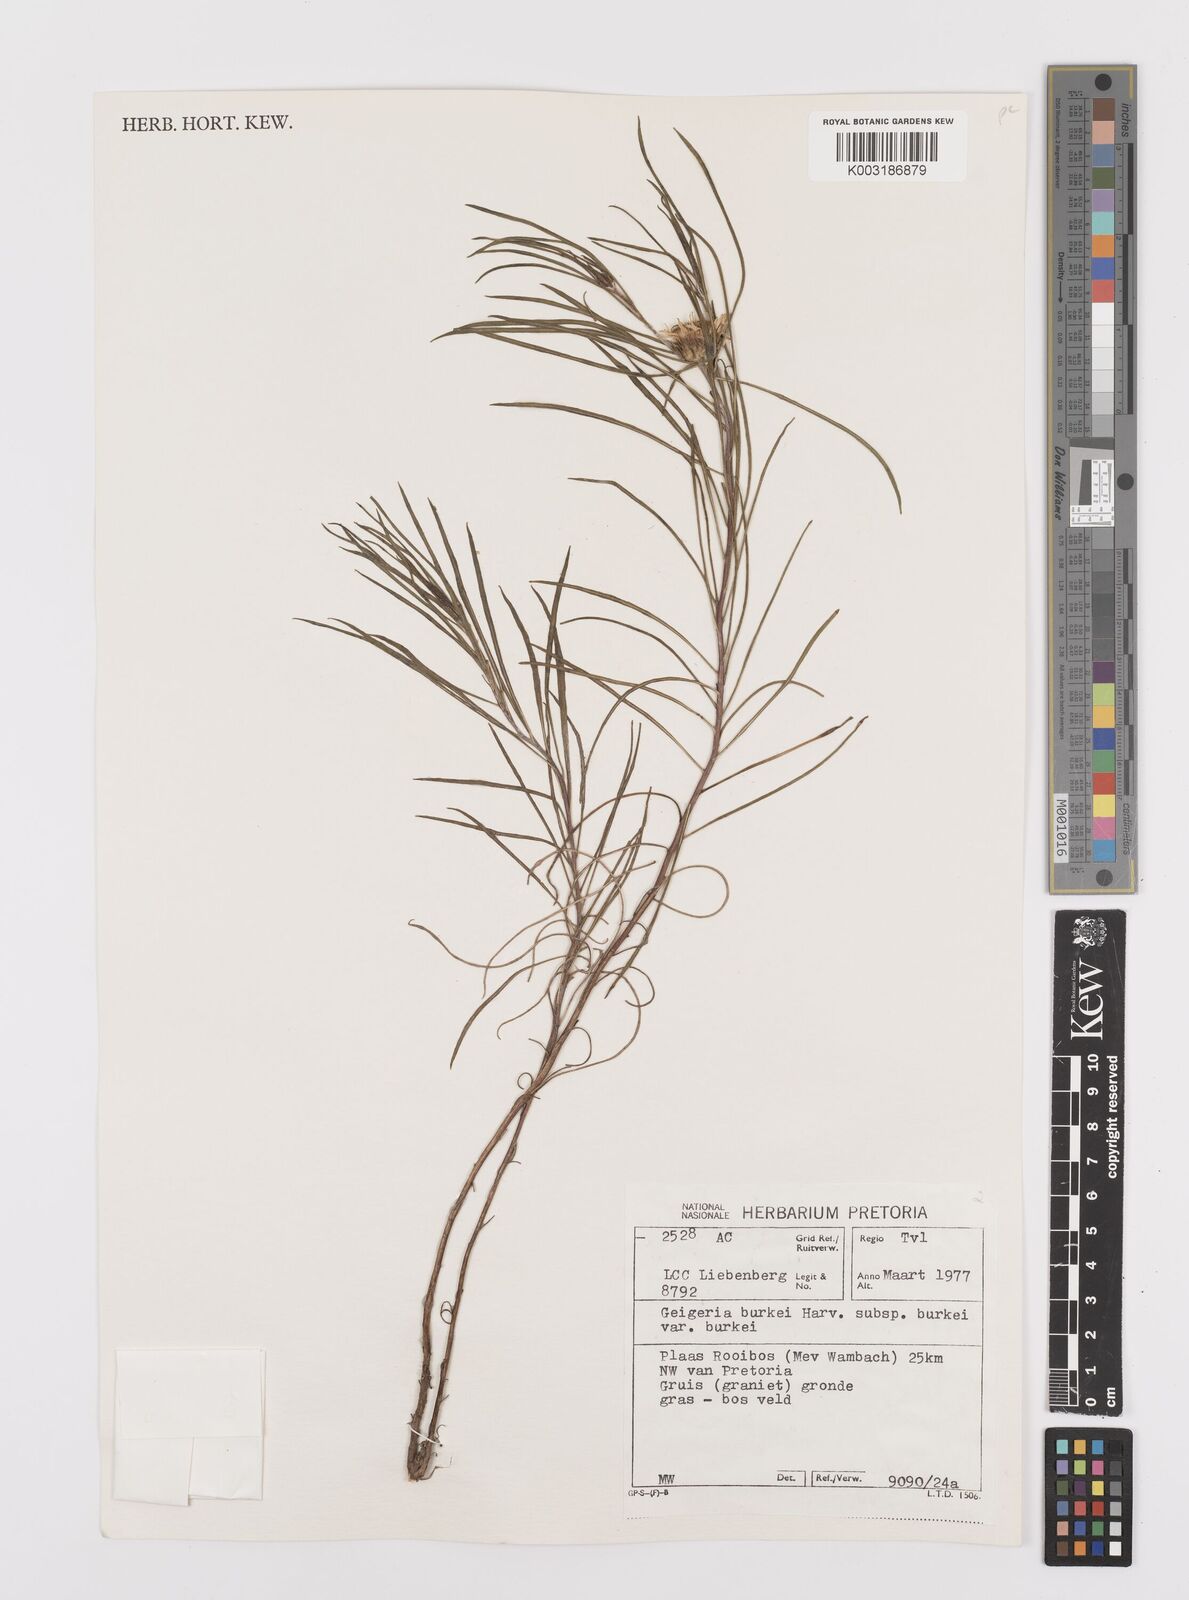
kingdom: Plantae
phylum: Tracheophyta
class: Magnoliopsida
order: Asterales
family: Asteraceae
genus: Geigeria
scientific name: Geigeria burkei
